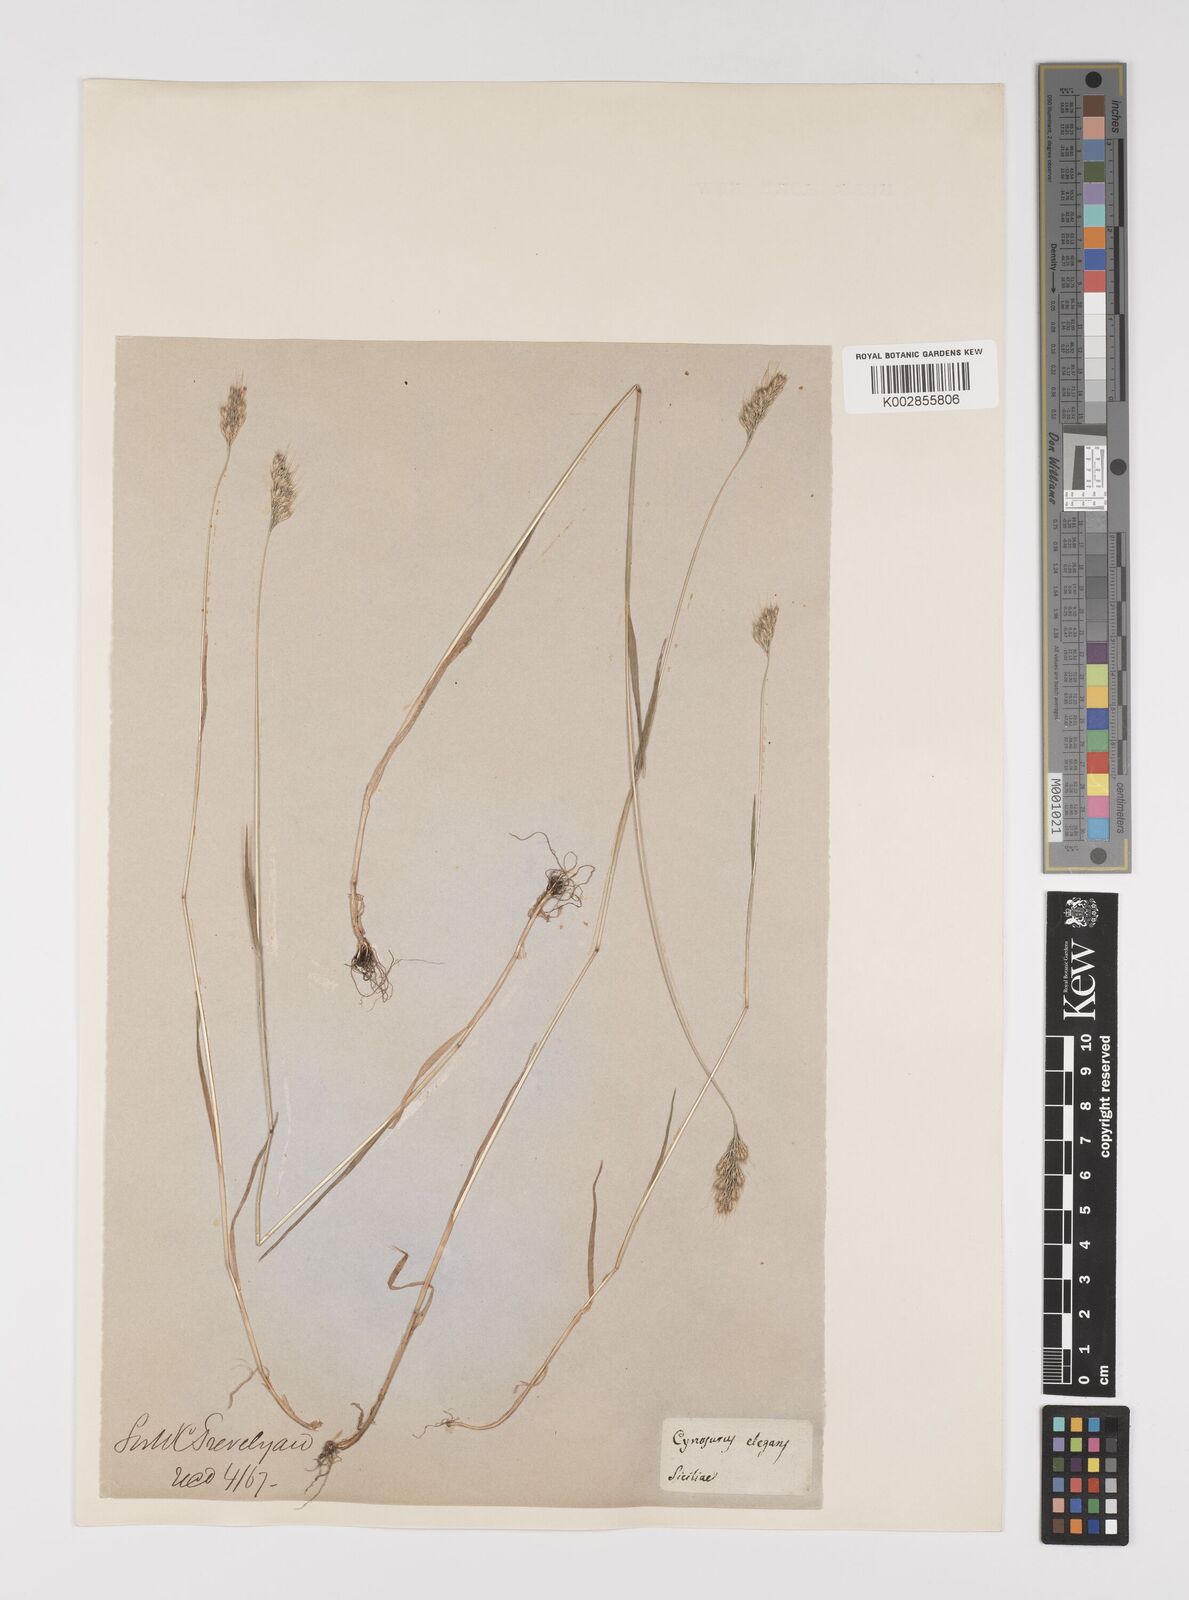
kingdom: Plantae
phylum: Tracheophyta
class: Liliopsida
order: Poales
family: Poaceae
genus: Cynosurus
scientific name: Cynosurus elegans
